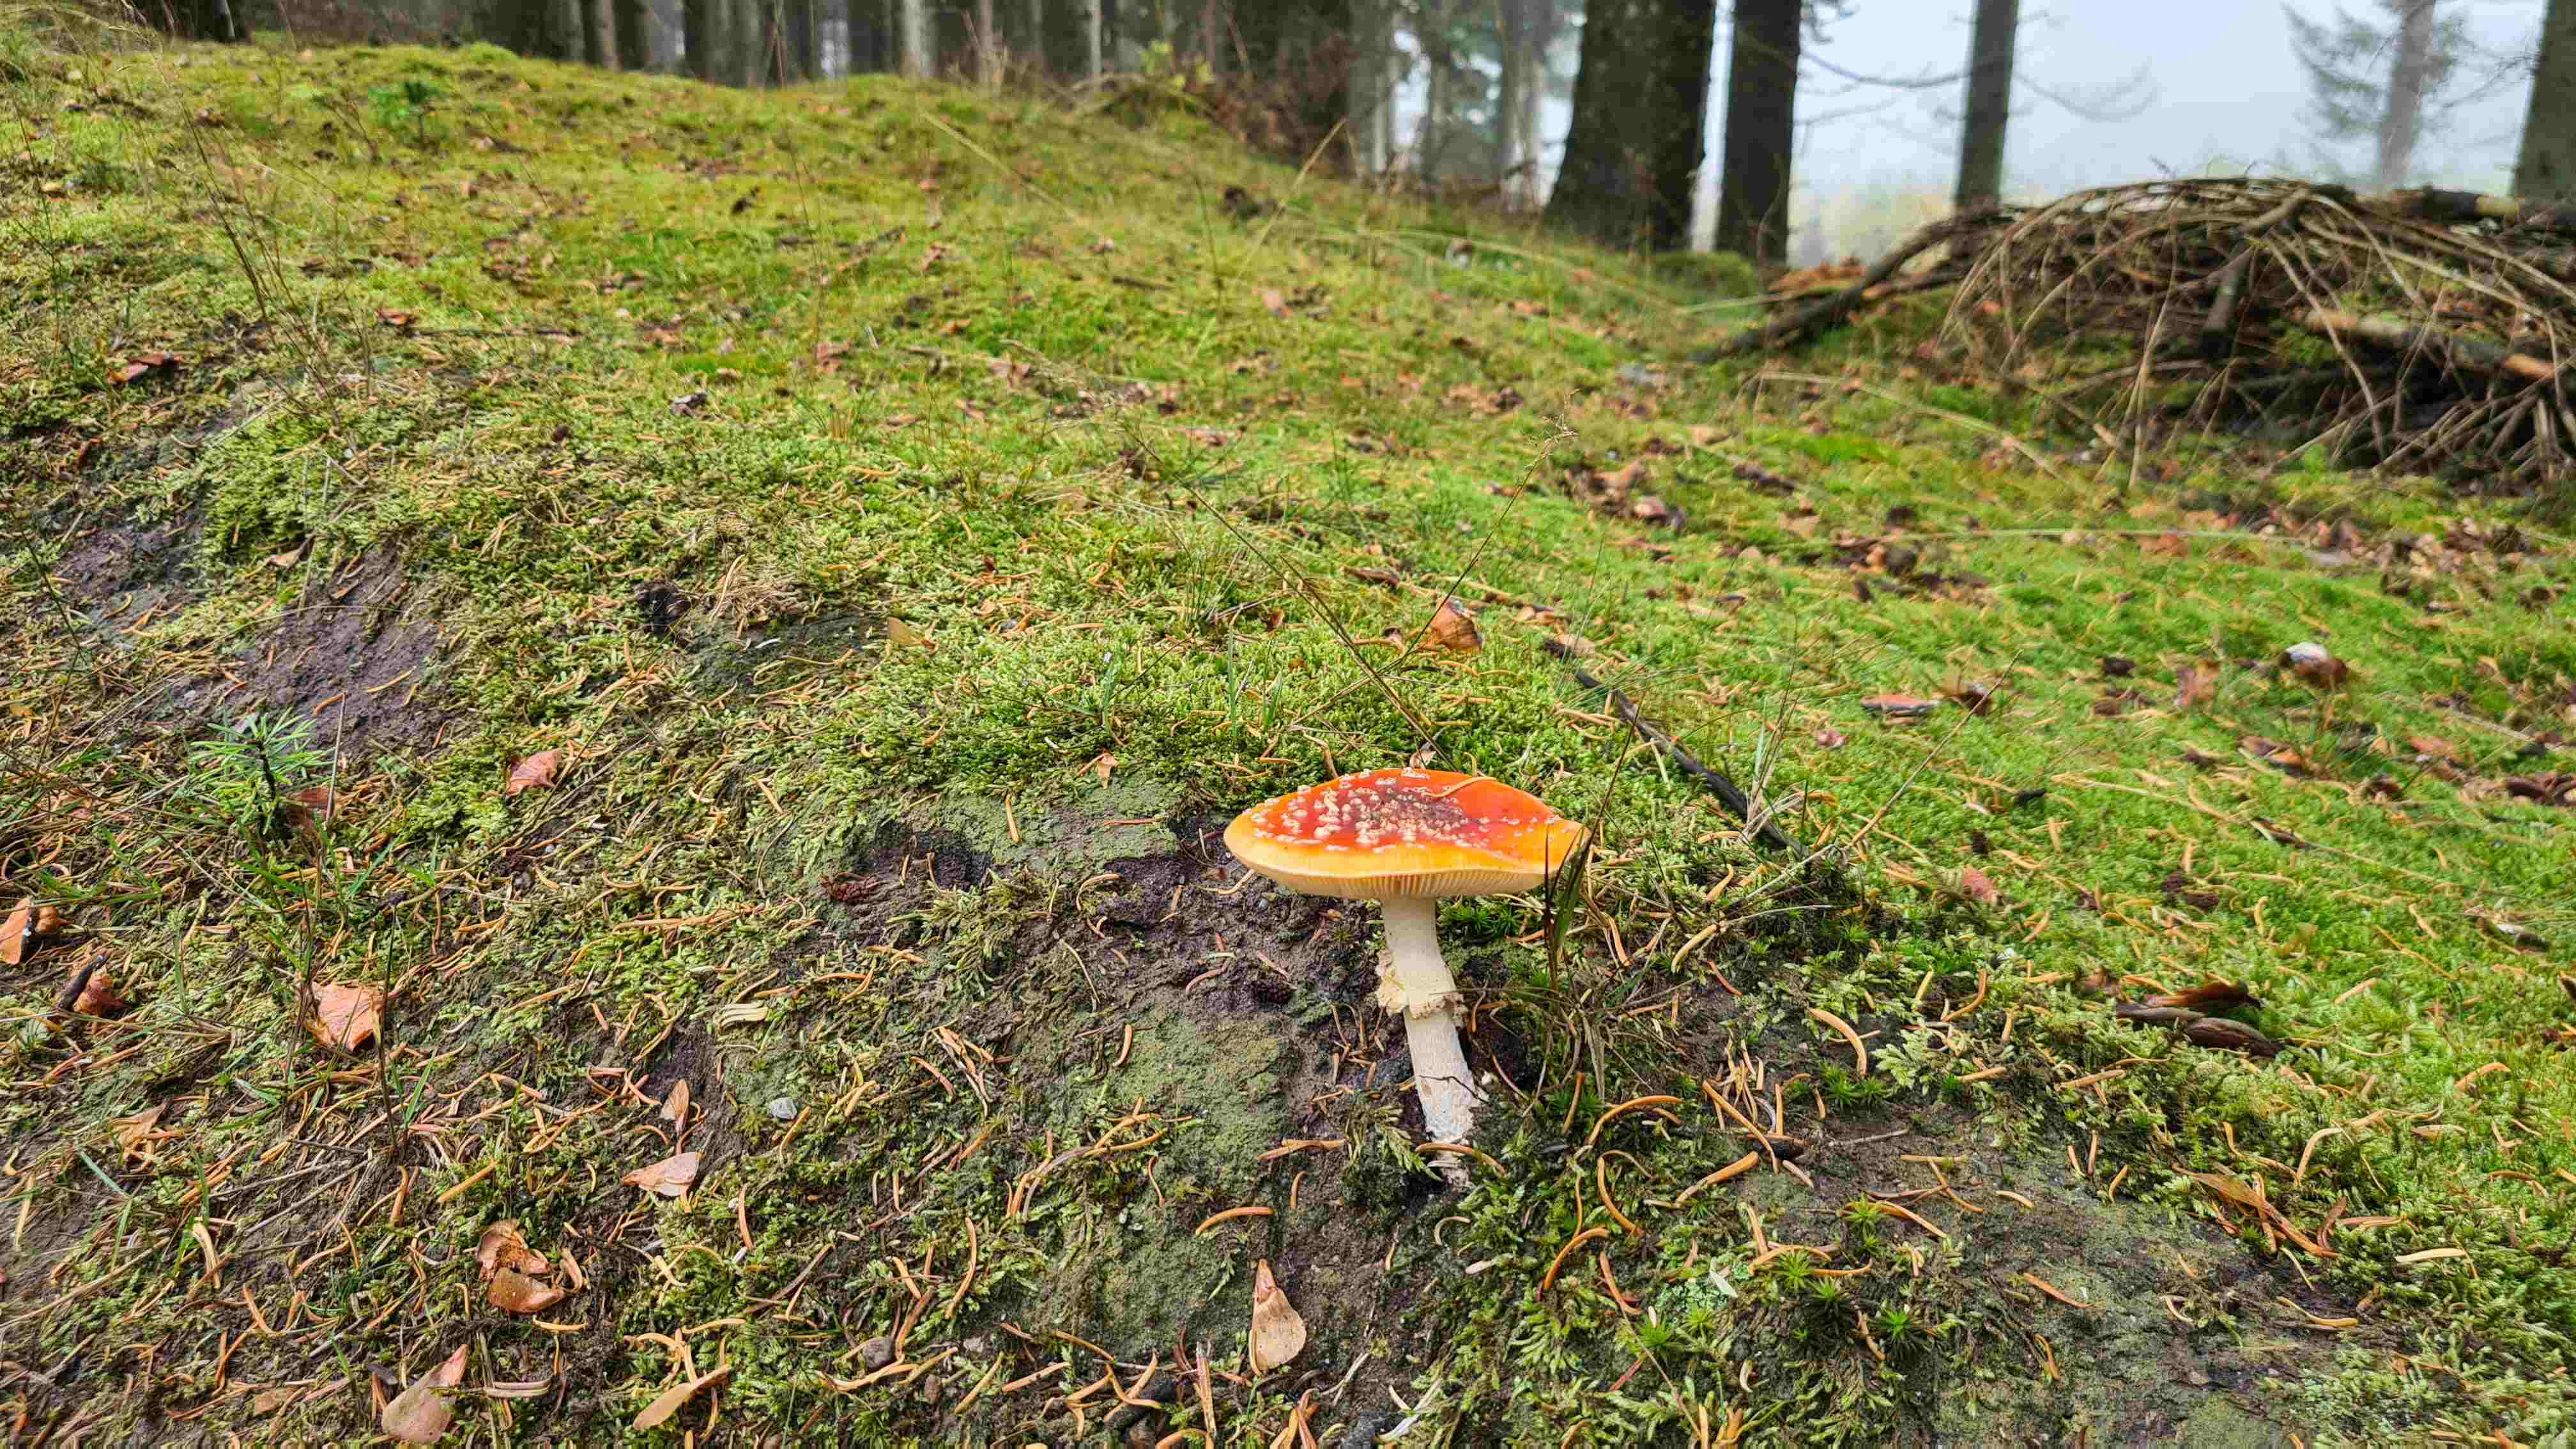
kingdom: Fungi
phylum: Basidiomycota
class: Agaricomycetes
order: Agaricales
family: Amanitaceae
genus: Amanita
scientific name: Amanita muscaria
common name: rød fluesvamp
